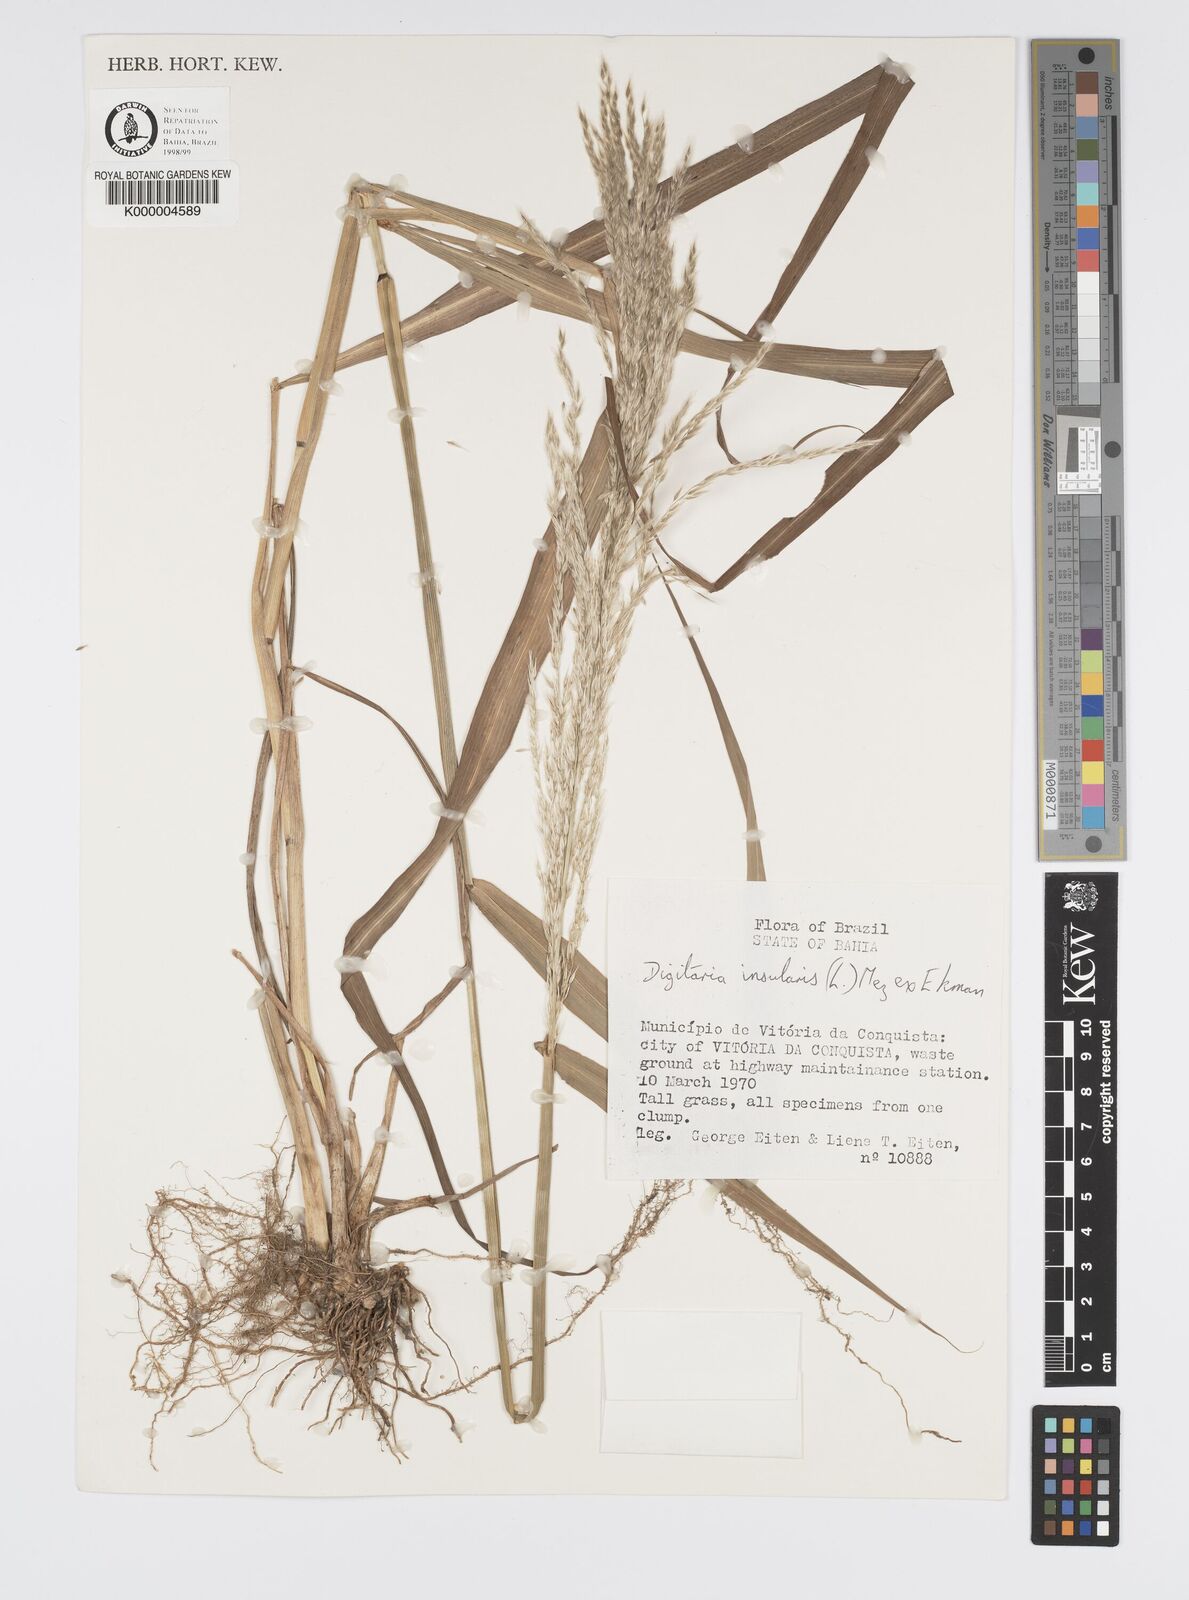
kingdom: Plantae
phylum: Tracheophyta
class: Liliopsida
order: Poales
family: Poaceae
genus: Digitaria
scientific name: Digitaria
